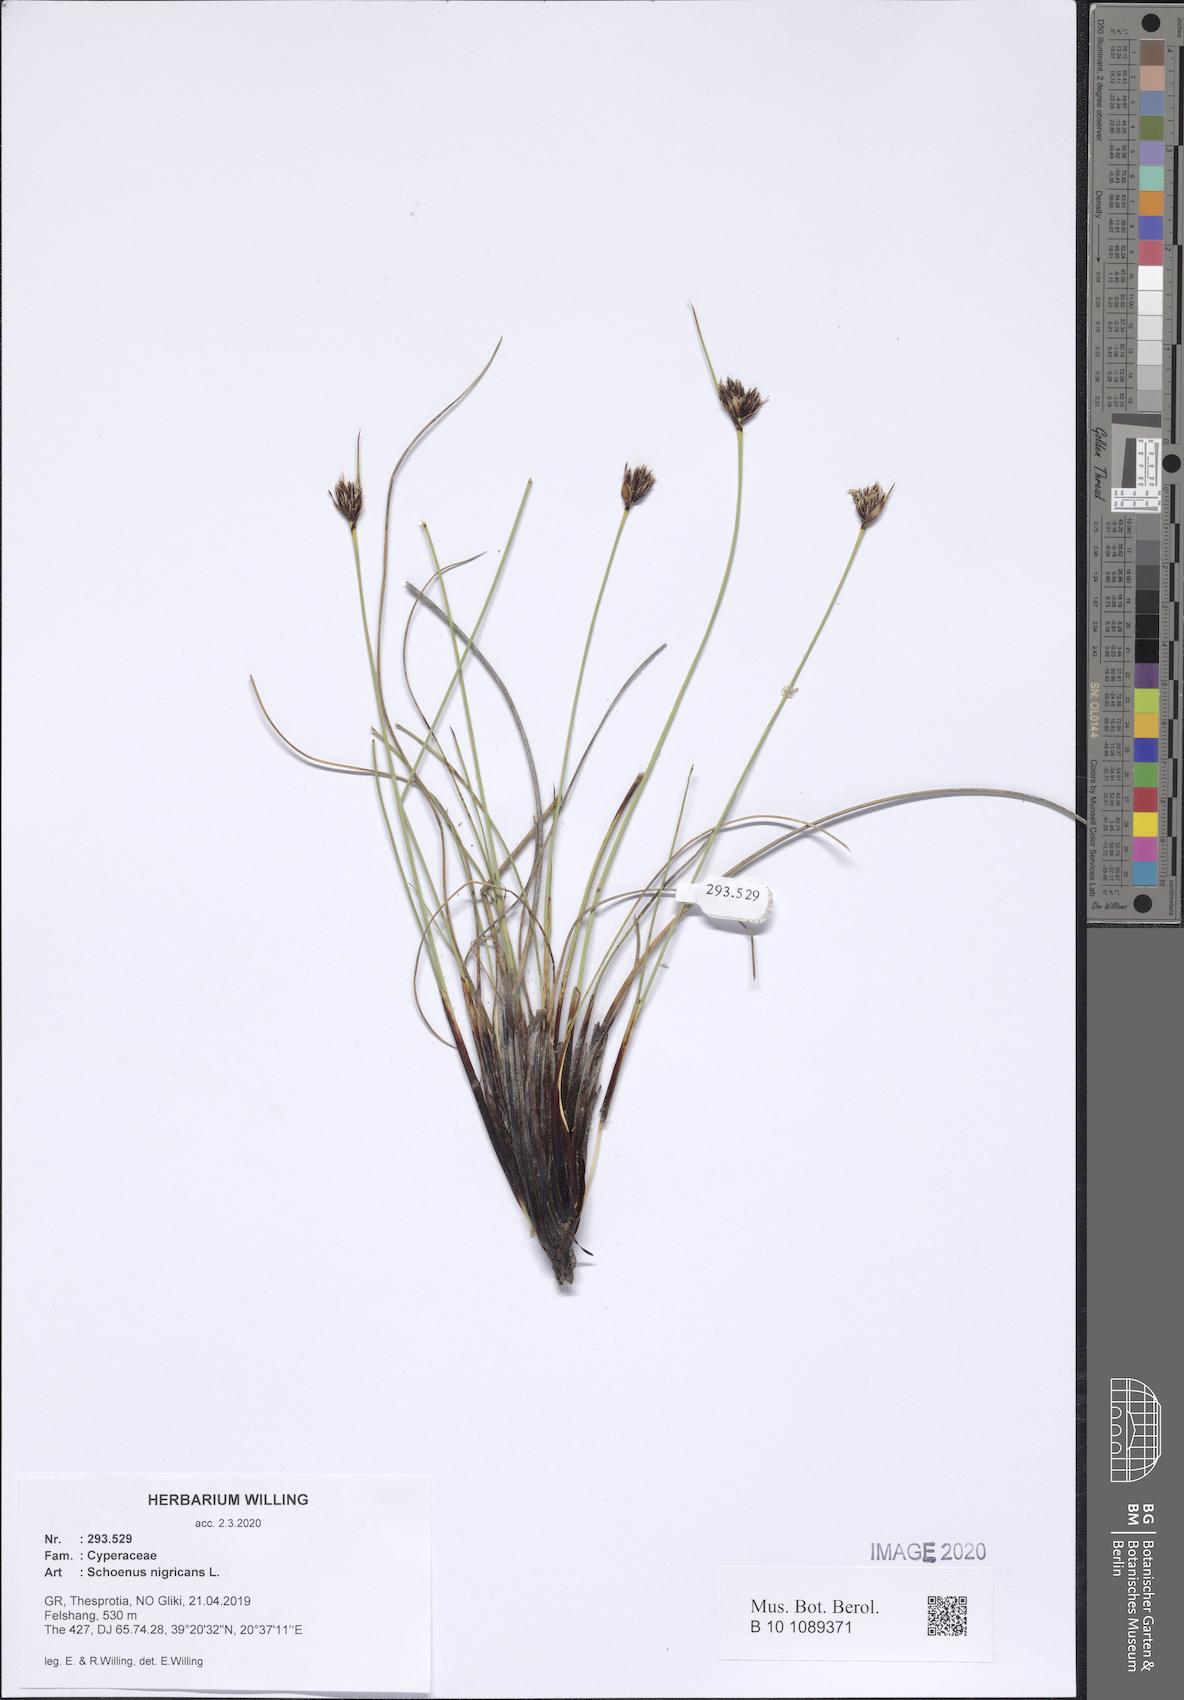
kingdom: Plantae
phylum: Tracheophyta
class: Liliopsida
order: Poales
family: Cyperaceae
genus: Schoenus
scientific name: Schoenus nigricans
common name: Black bog-rush
